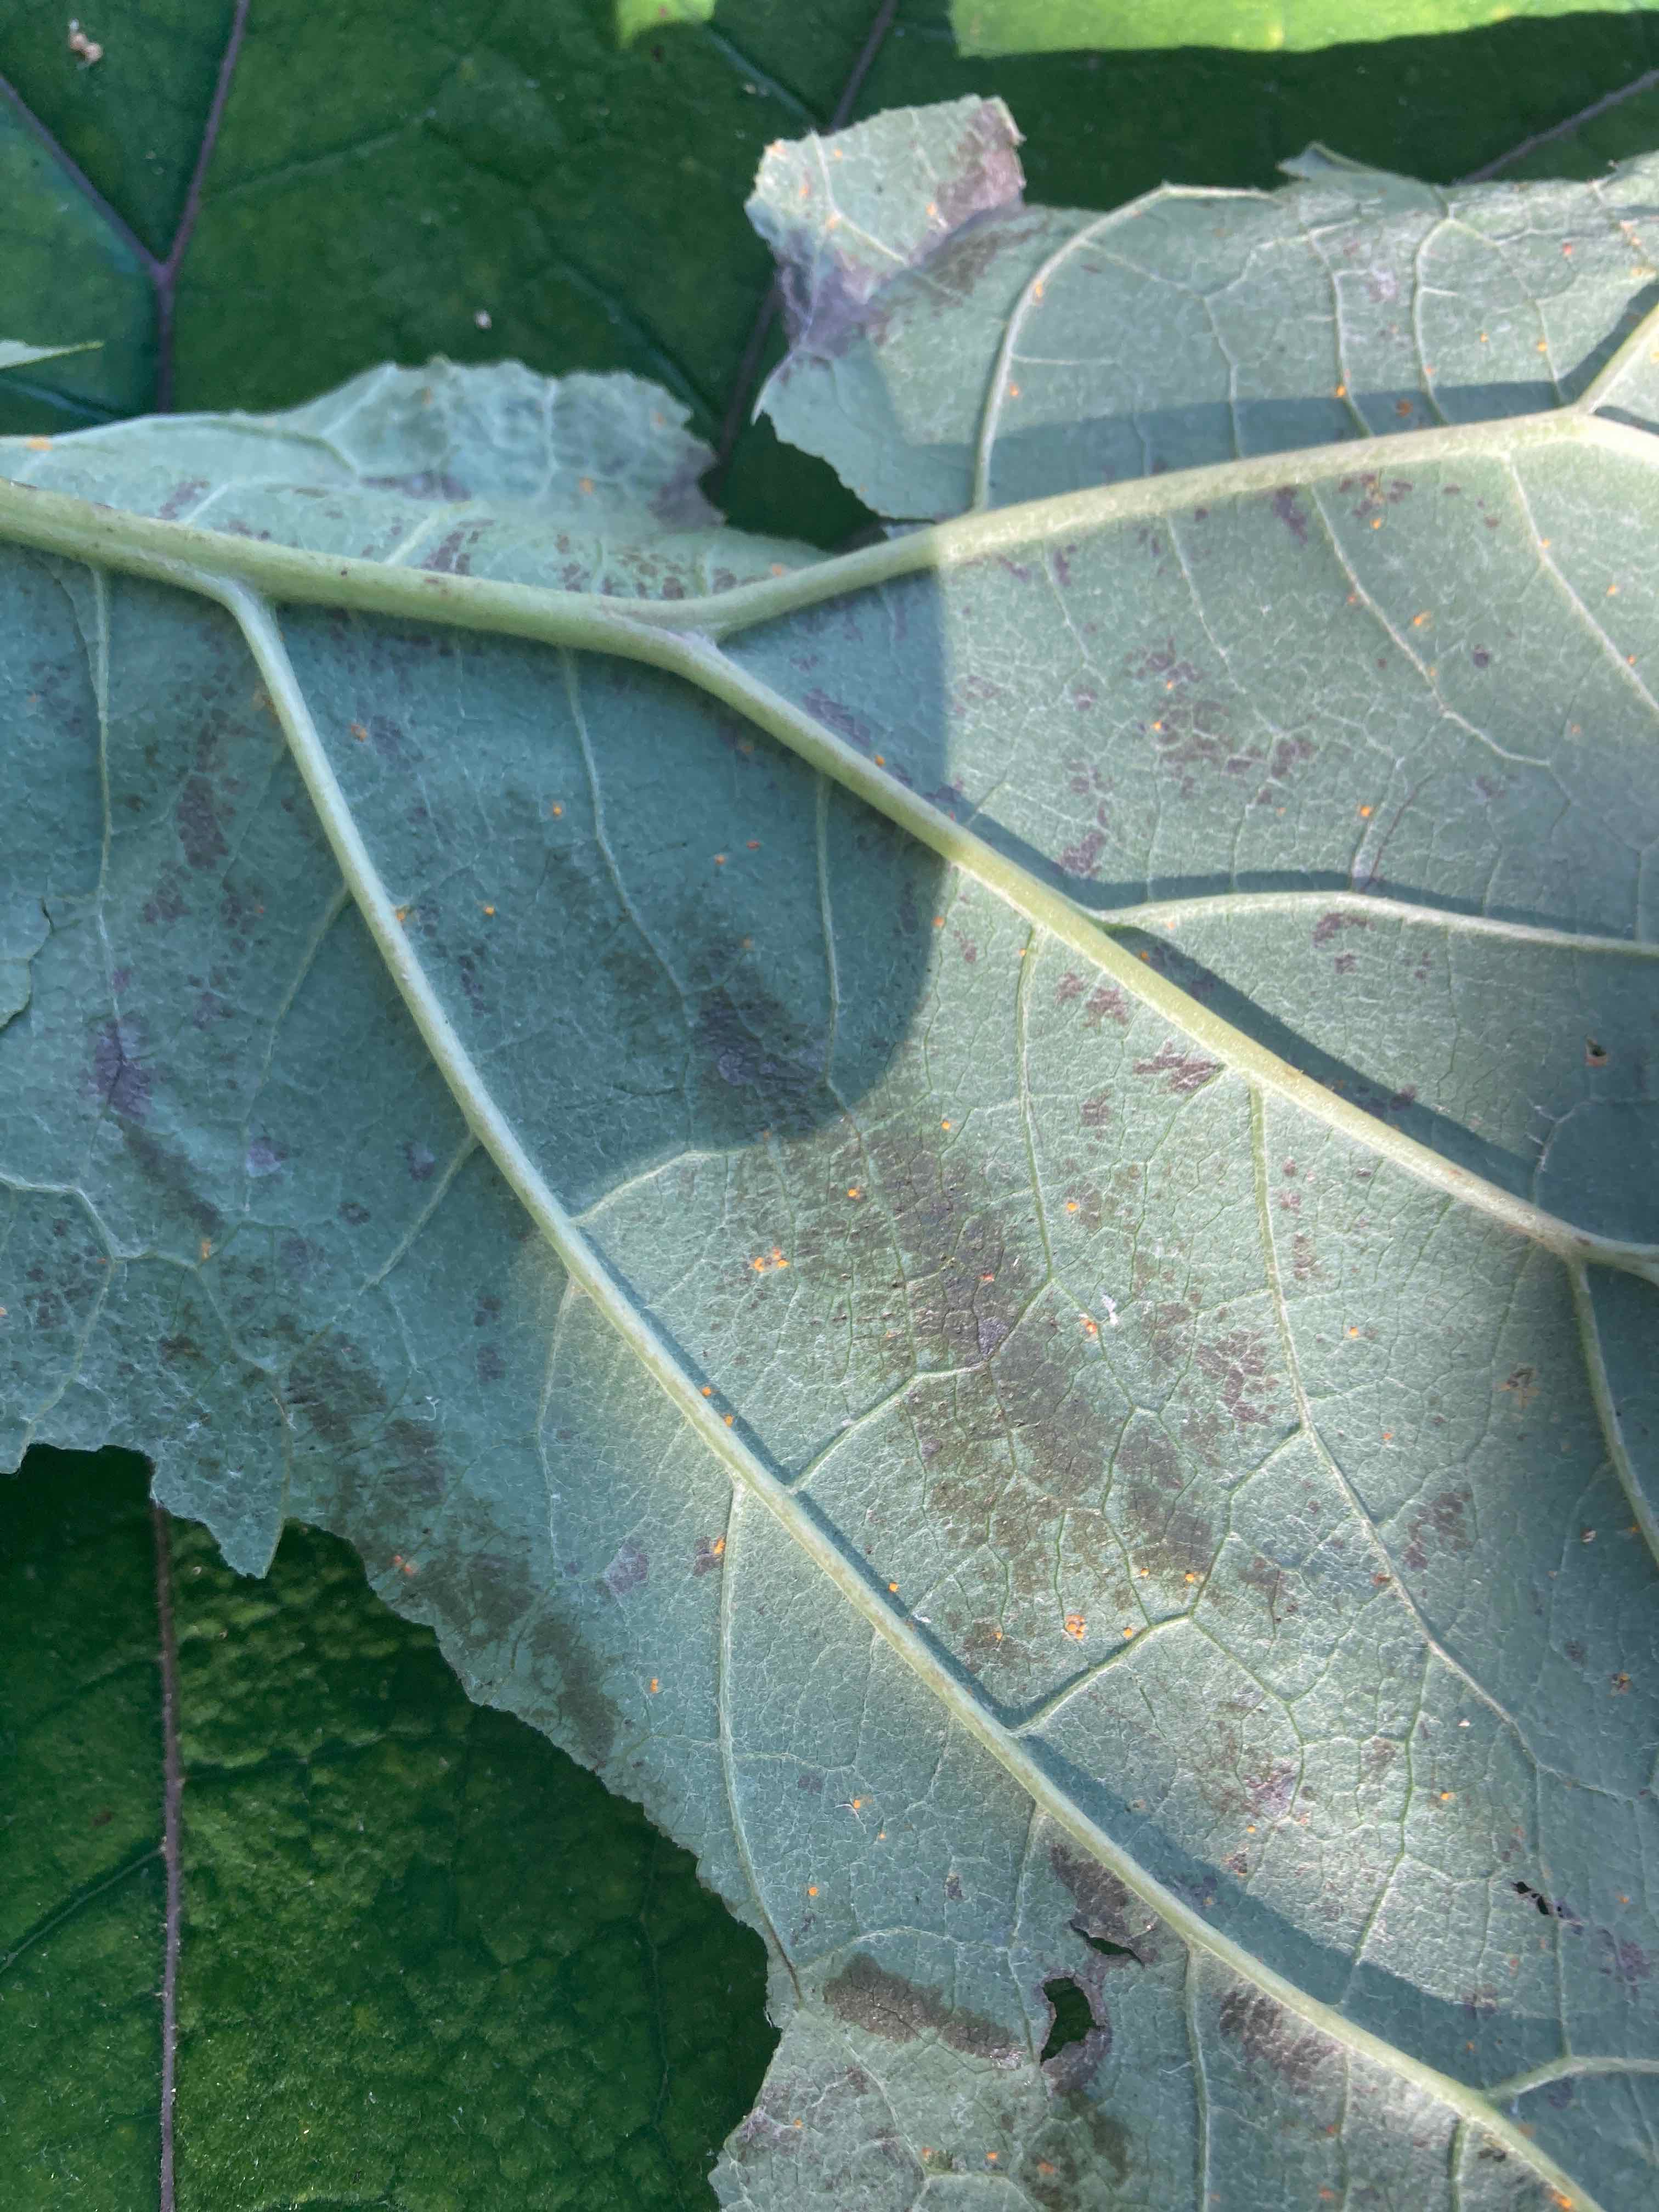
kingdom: Fungi
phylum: Basidiomycota
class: Pucciniomycetes
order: Pucciniales
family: Coleosporiaceae
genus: Coleosporium
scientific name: Coleosporium tussilaginis
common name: almindelig fyrrenålerust
